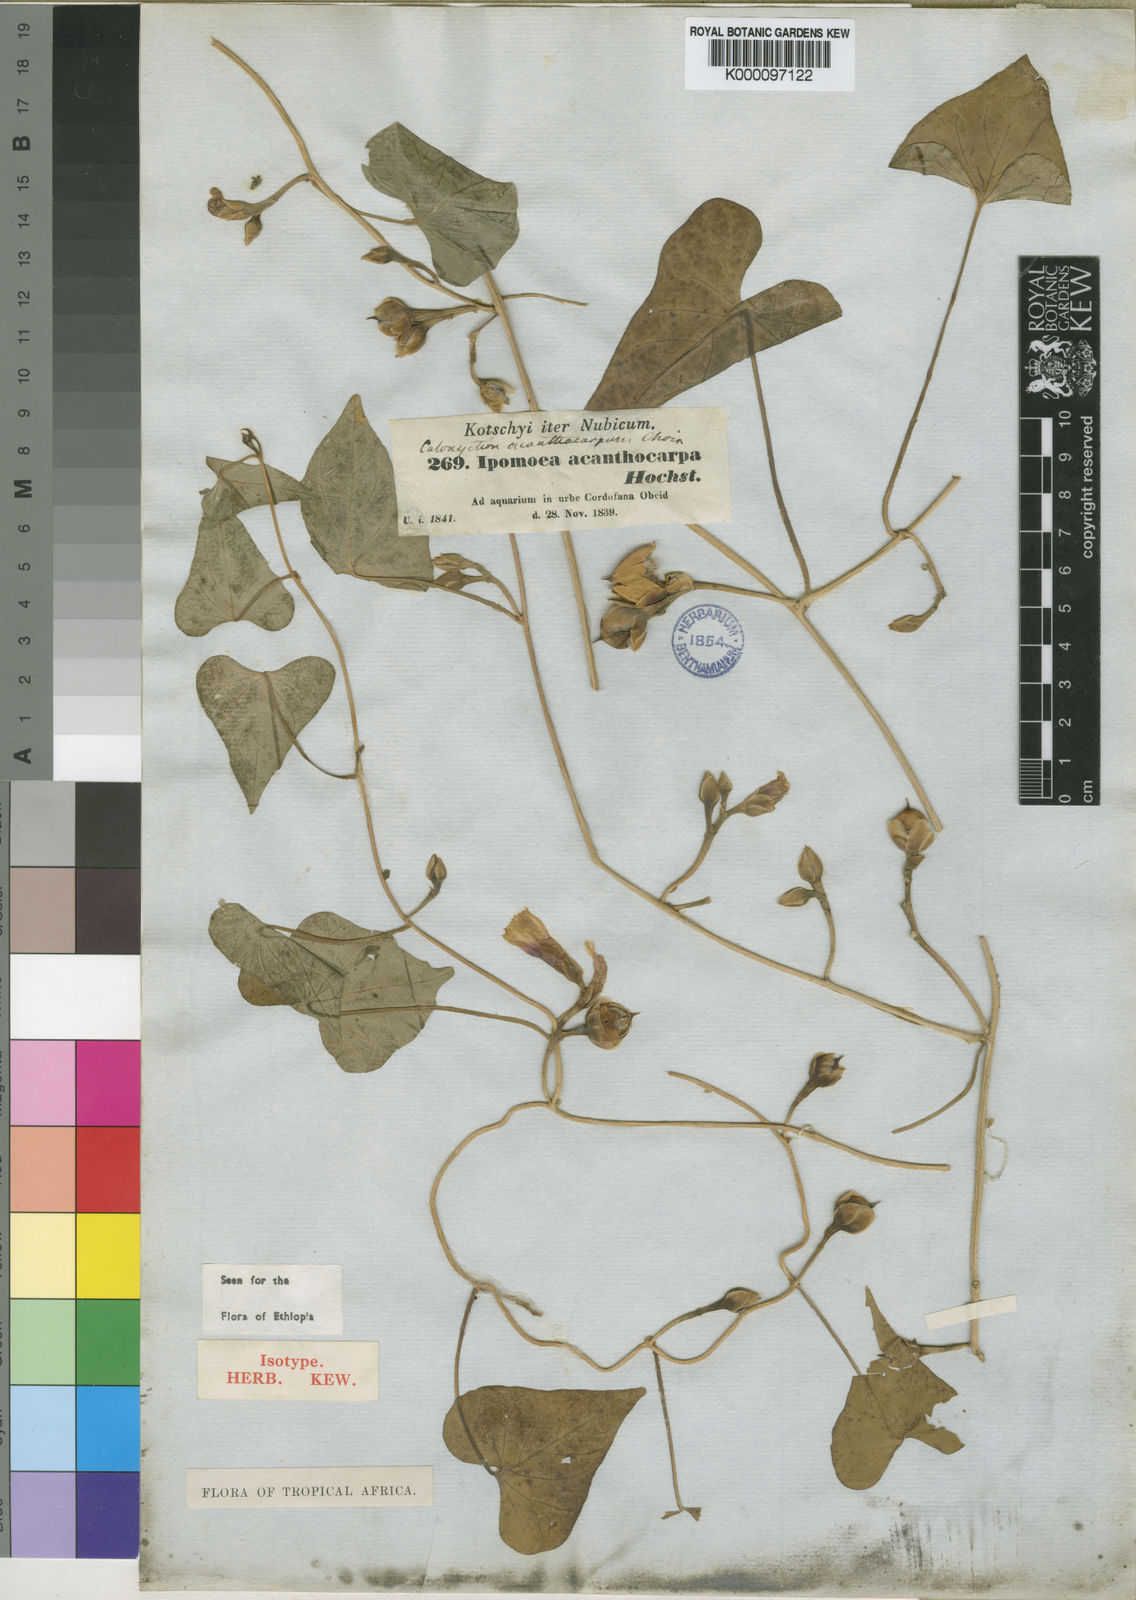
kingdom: Plantae
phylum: Tracheophyta
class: Magnoliopsida
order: Solanales
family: Convolvulaceae
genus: Ipomoea
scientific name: Ipomoea acanthocarpa
